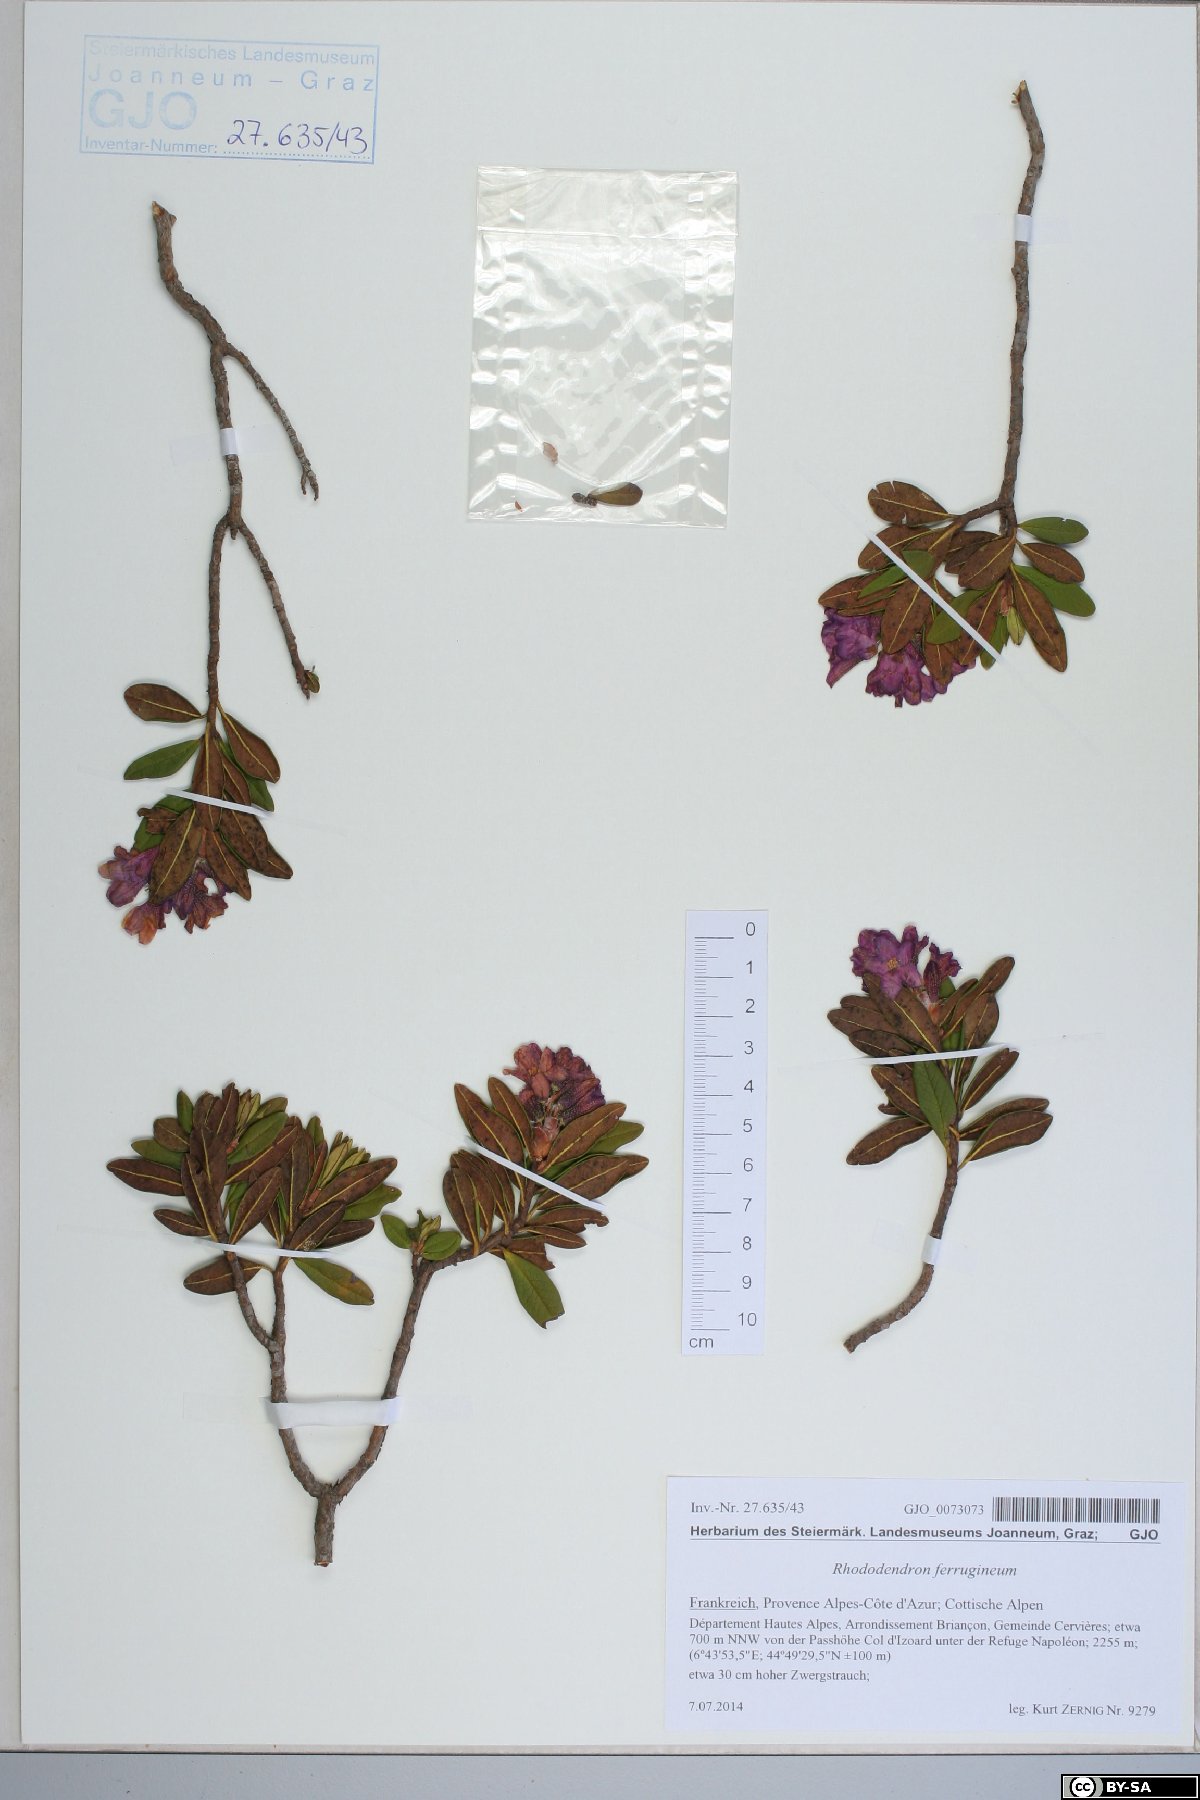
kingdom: Plantae
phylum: Tracheophyta
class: Magnoliopsida
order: Ericales
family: Ericaceae
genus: Rhododendron
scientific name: Rhododendron ferrugineum
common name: Alpenrose
